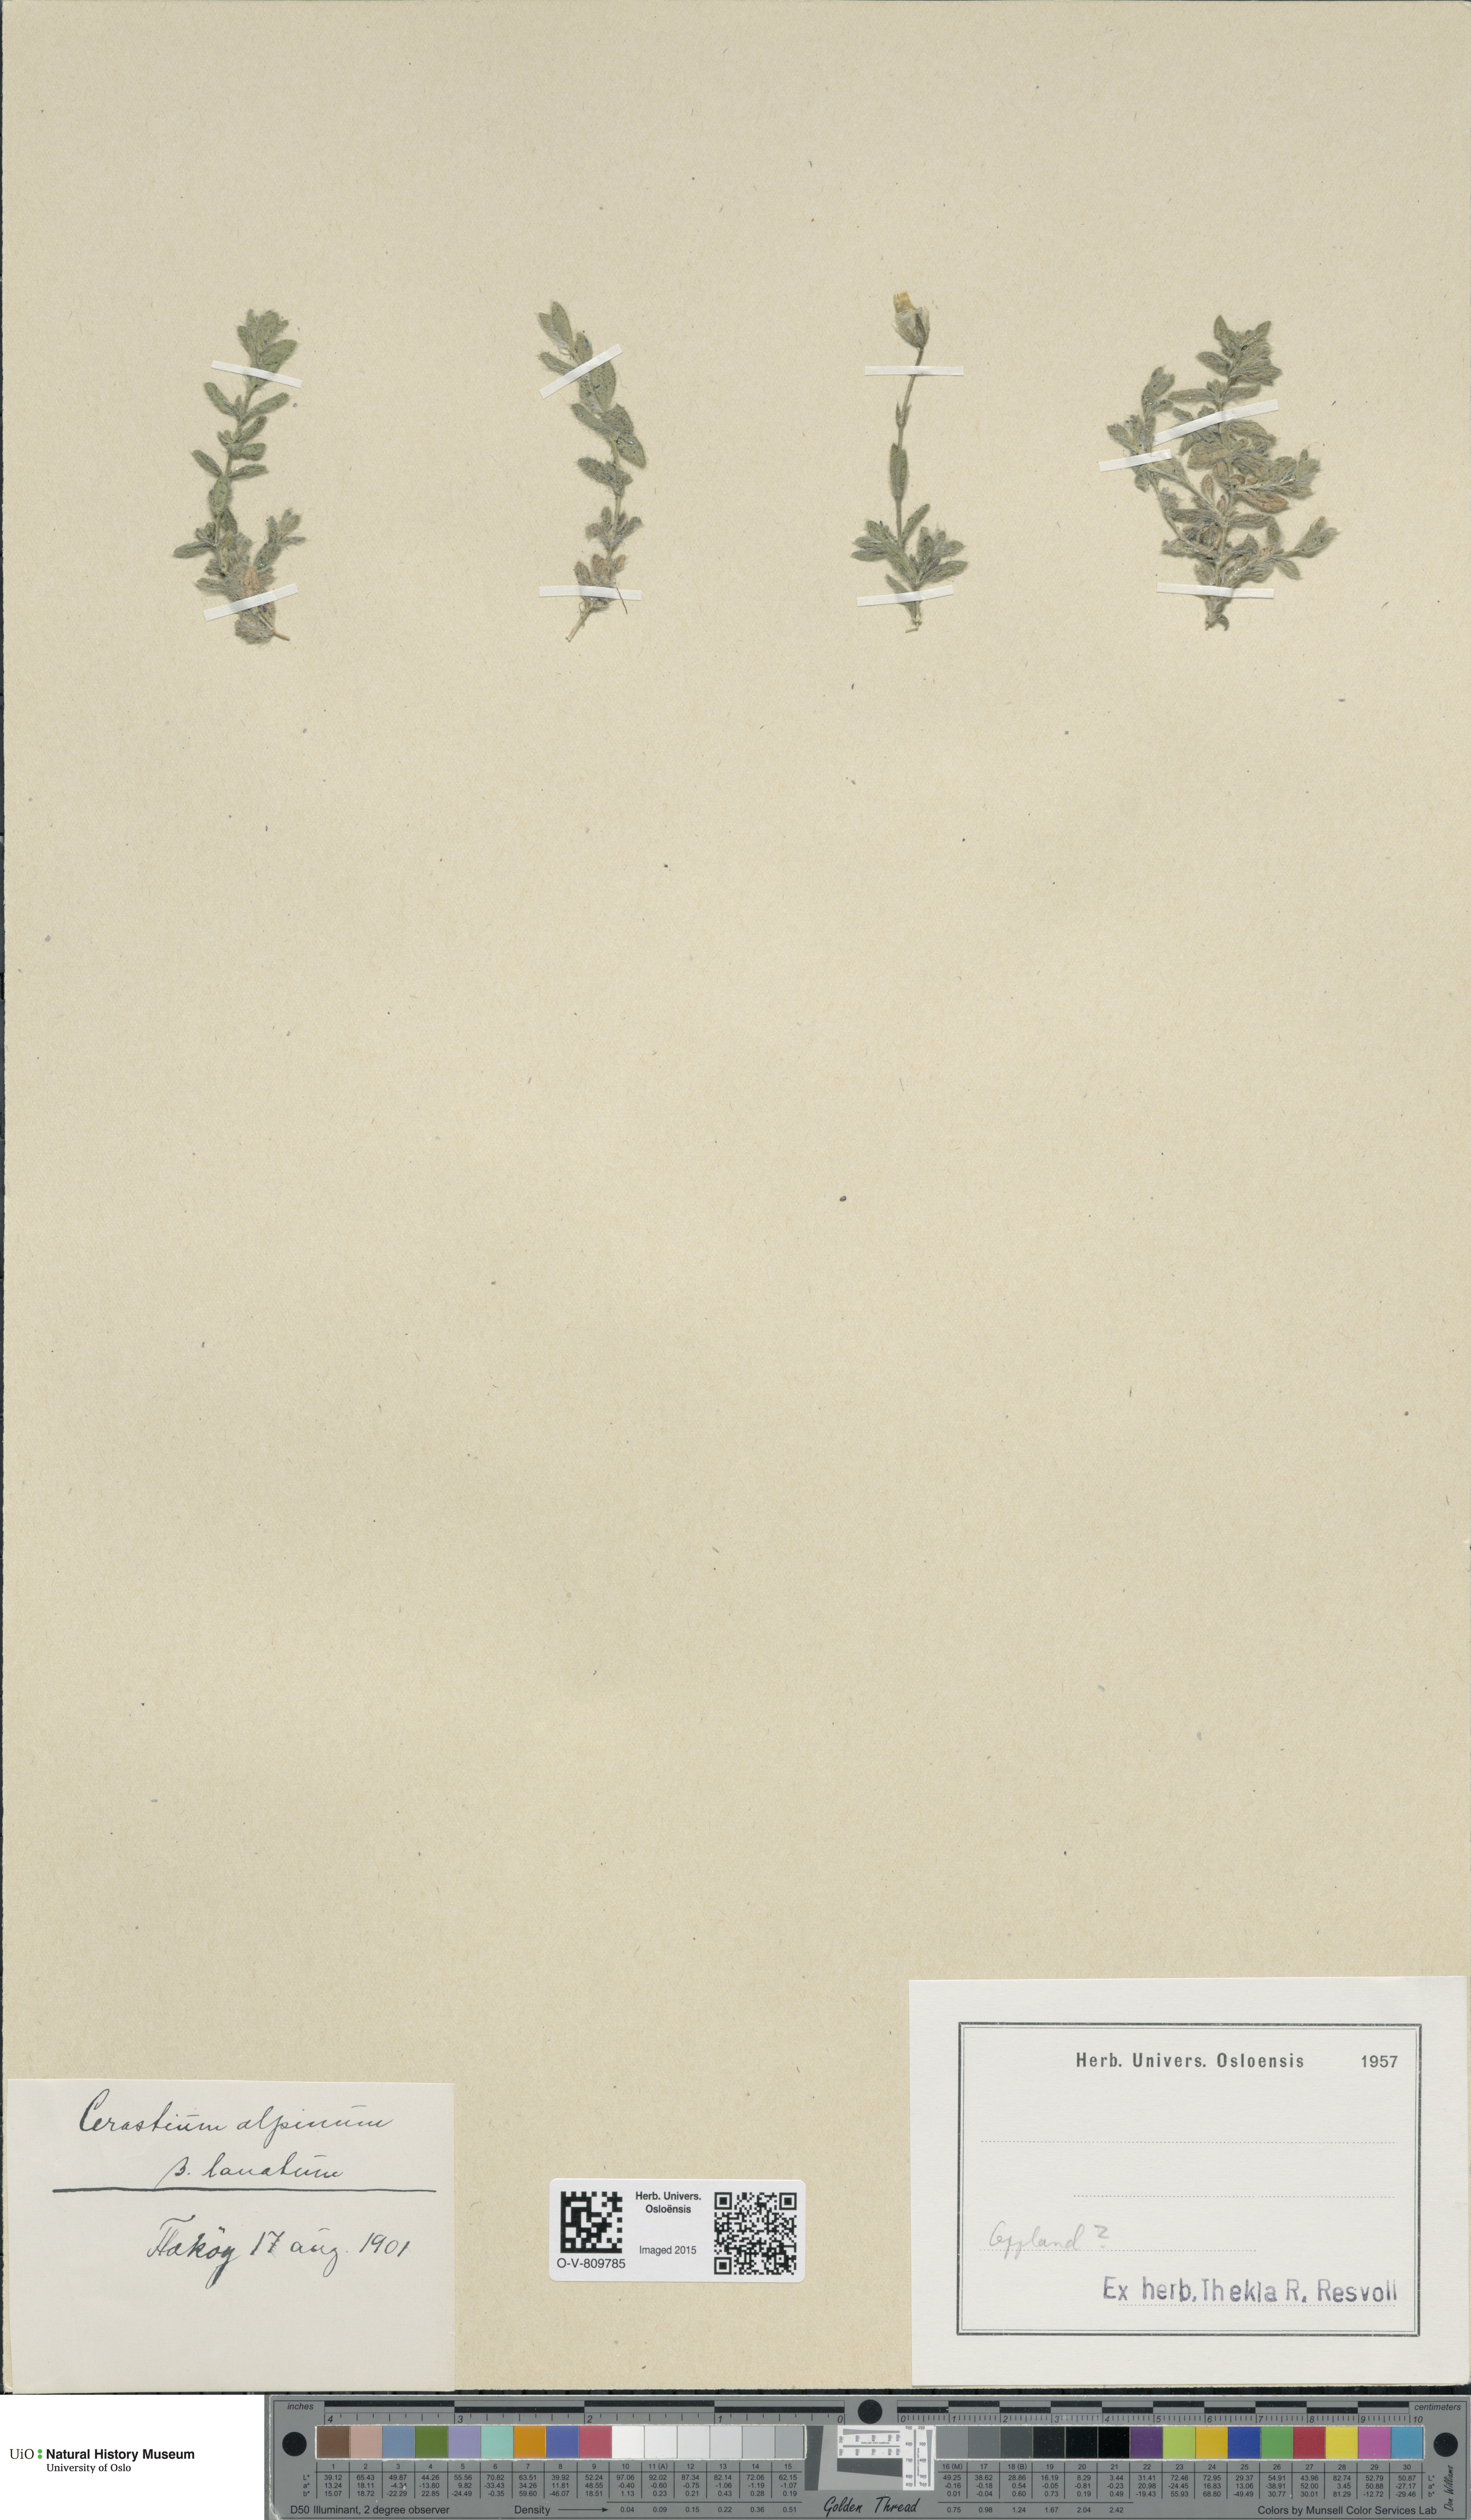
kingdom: Plantae
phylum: Tracheophyta
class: Magnoliopsida
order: Caryophyllales
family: Caryophyllaceae
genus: Cerastium
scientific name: Cerastium alpinum
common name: Alpine mouse-ear
